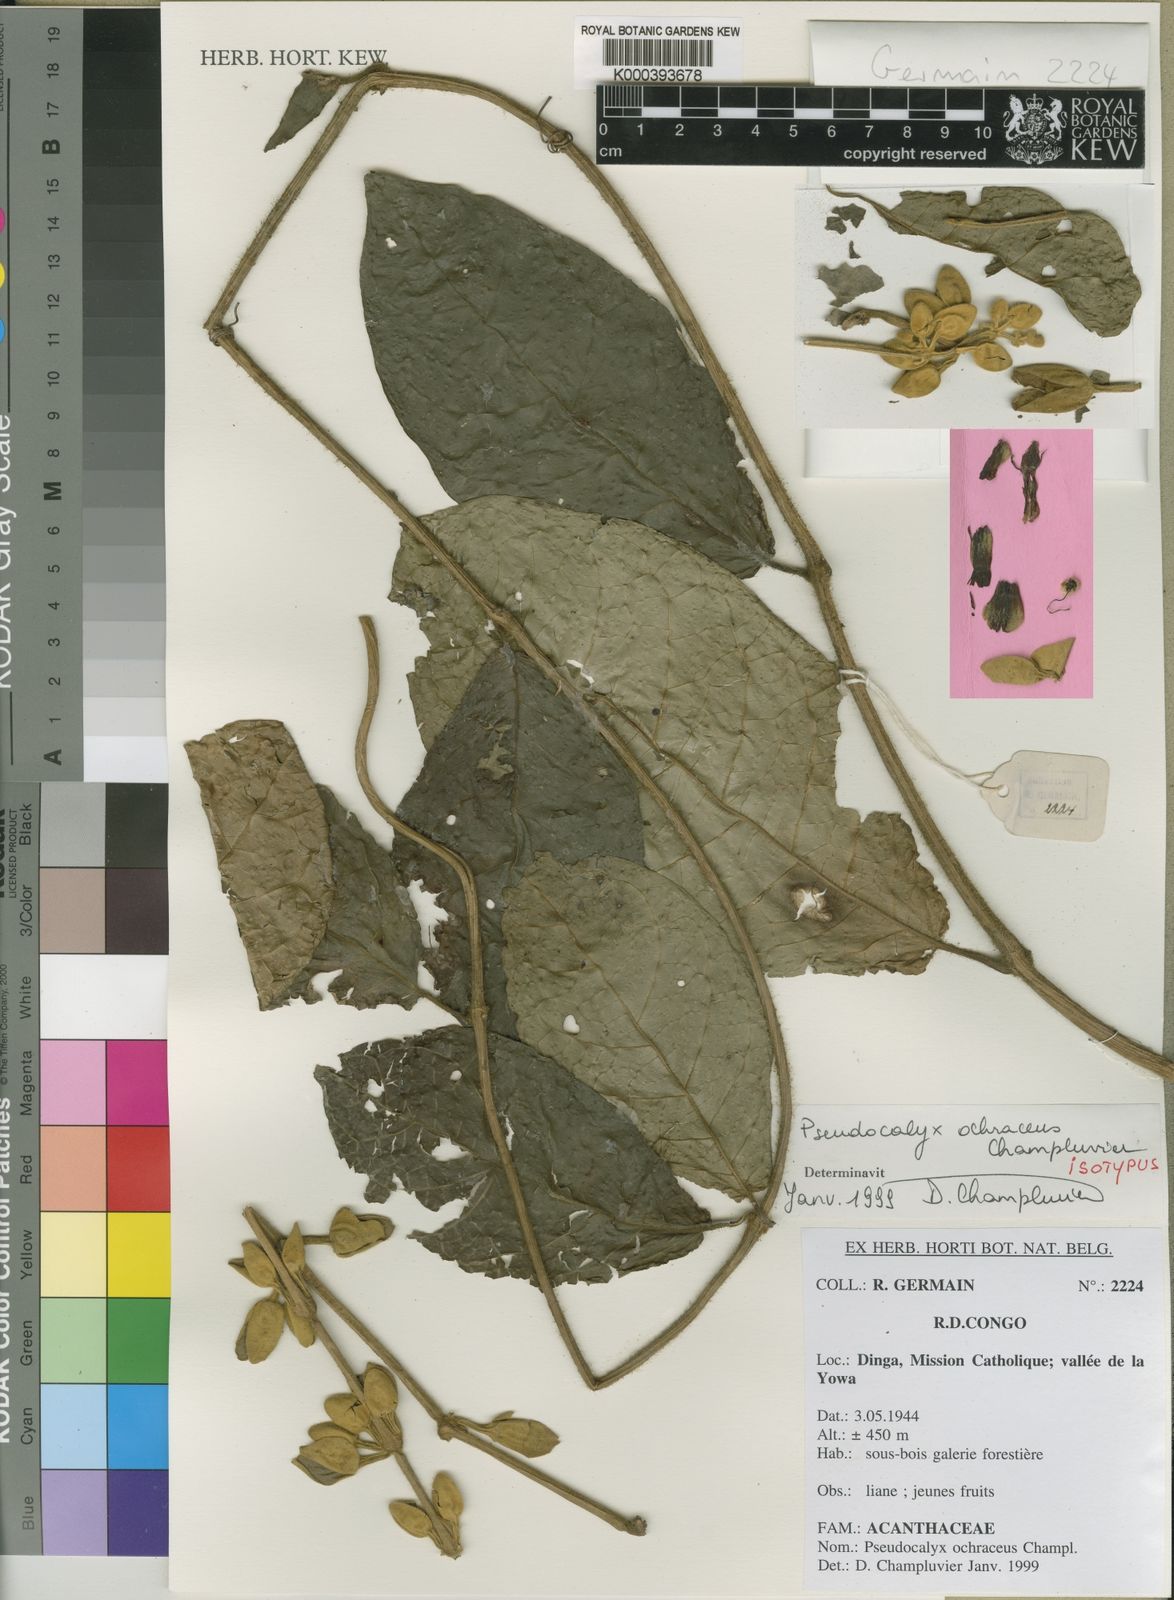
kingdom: Plantae
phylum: Tracheophyta
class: Magnoliopsida
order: Lamiales
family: Acanthaceae
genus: Mendoncia
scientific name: Mendoncia
